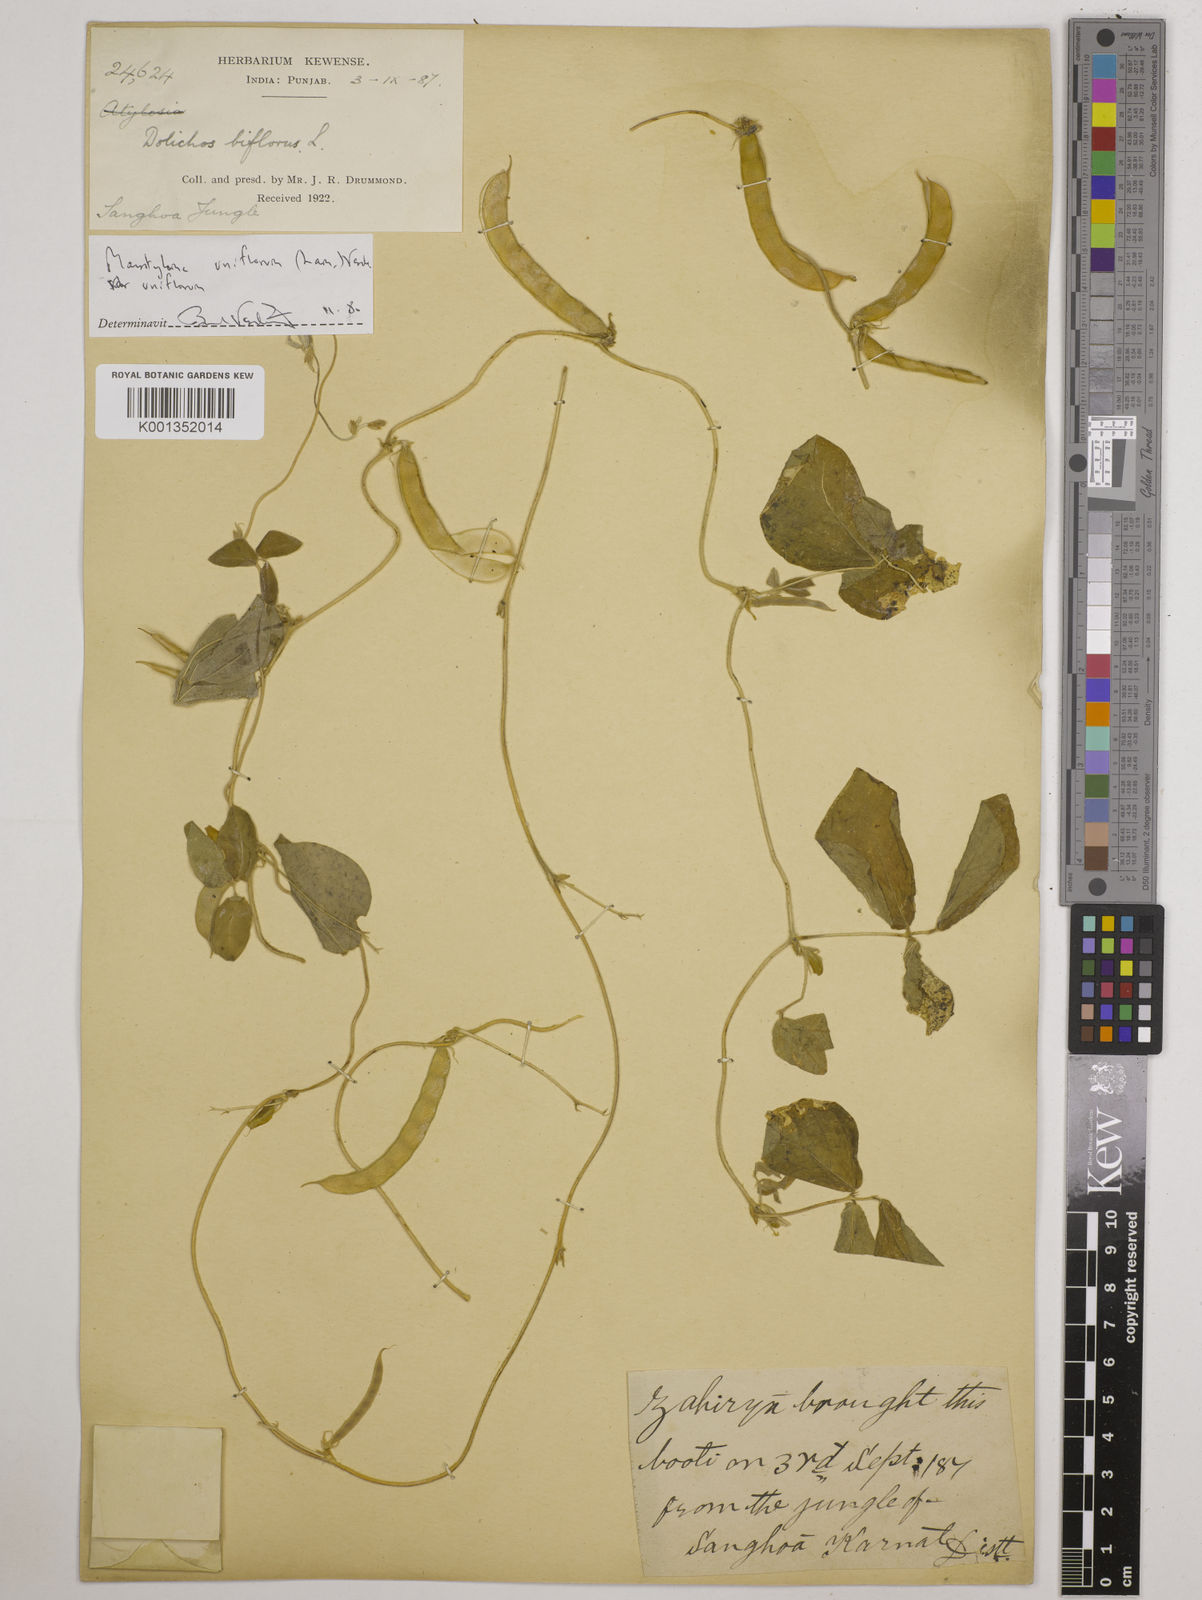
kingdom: Plantae
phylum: Tracheophyta
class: Magnoliopsida
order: Fabales
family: Fabaceae
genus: Macrotyloma
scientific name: Macrotyloma uniflorum
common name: Horse gram
